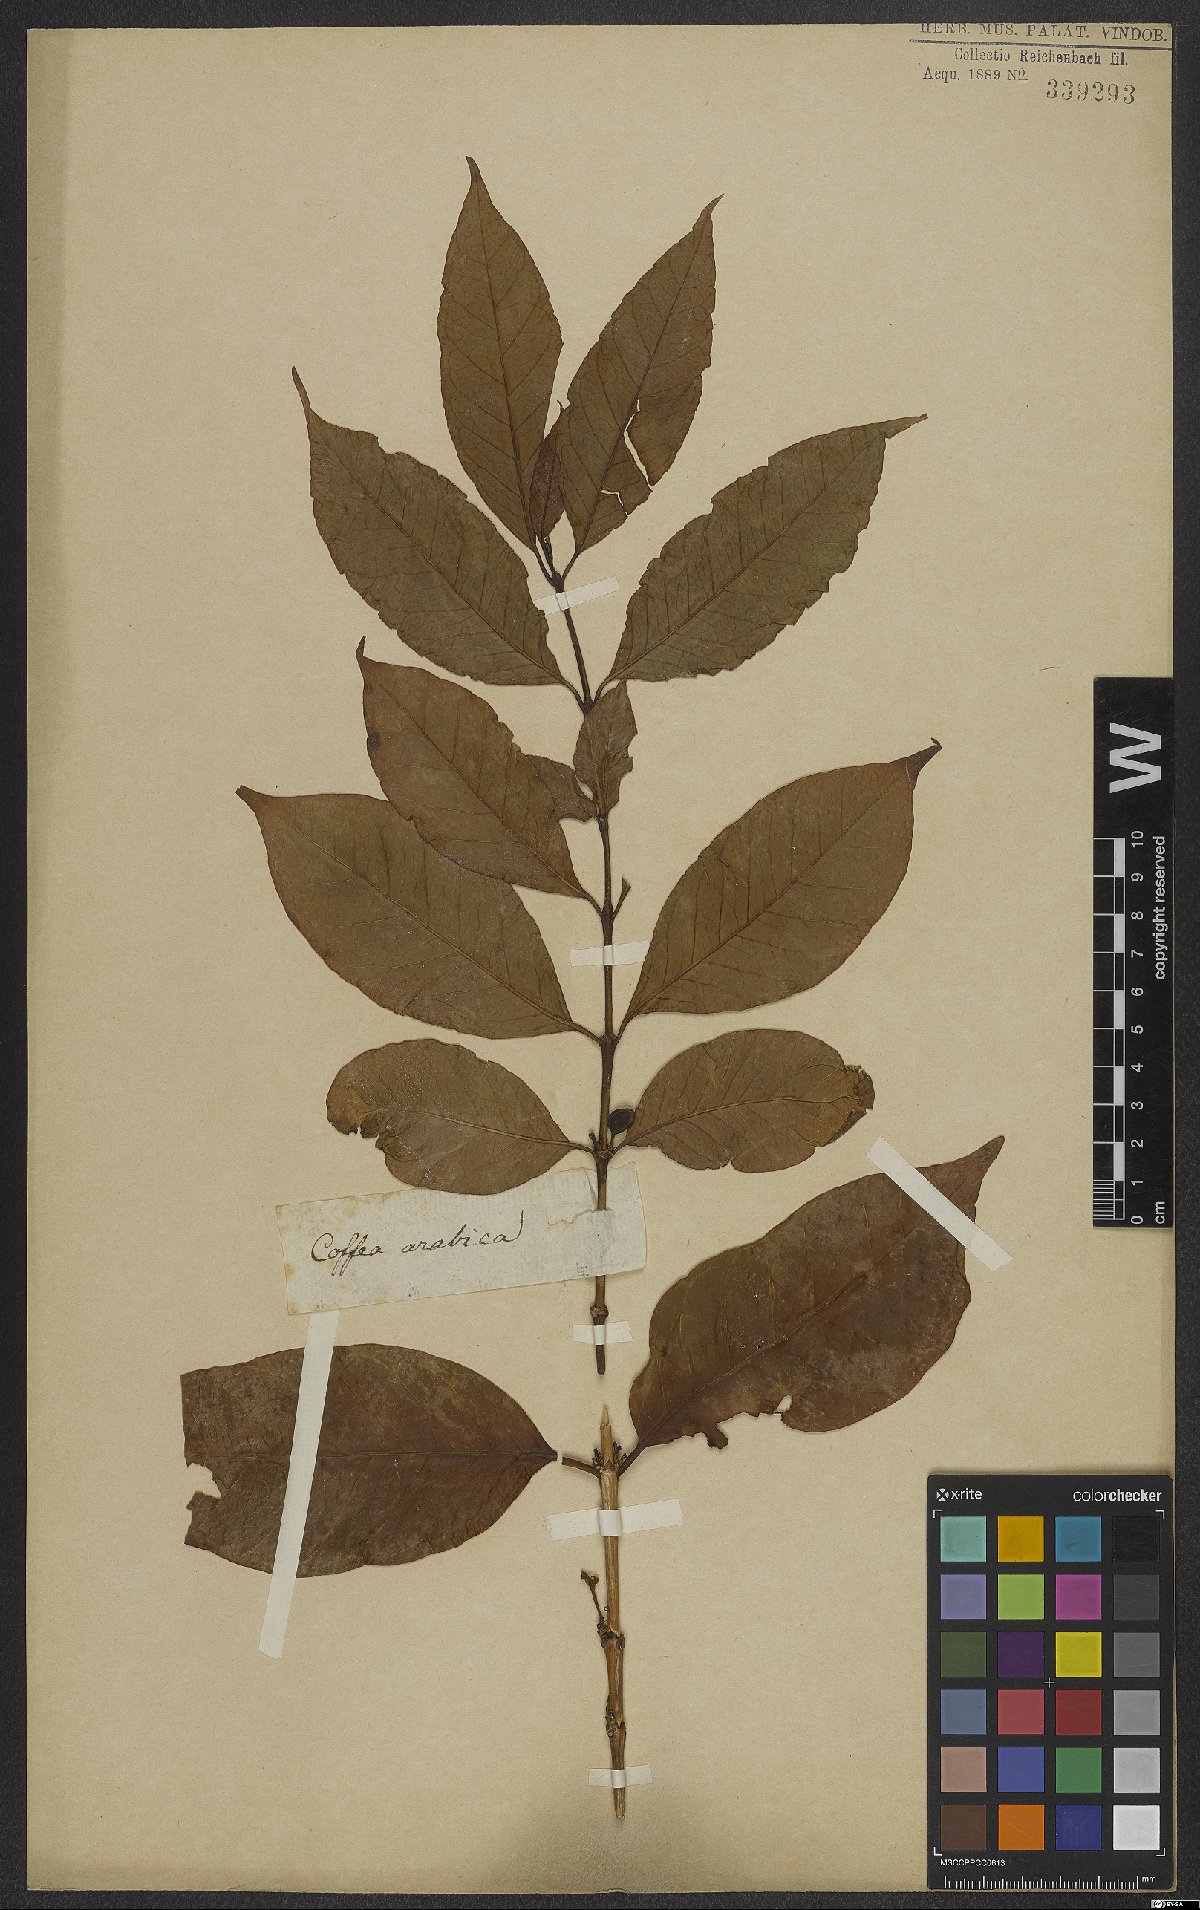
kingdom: Plantae
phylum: Tracheophyta
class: Magnoliopsida
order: Gentianales
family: Rubiaceae
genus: Coffea
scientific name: Coffea arabica
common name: Coffee
